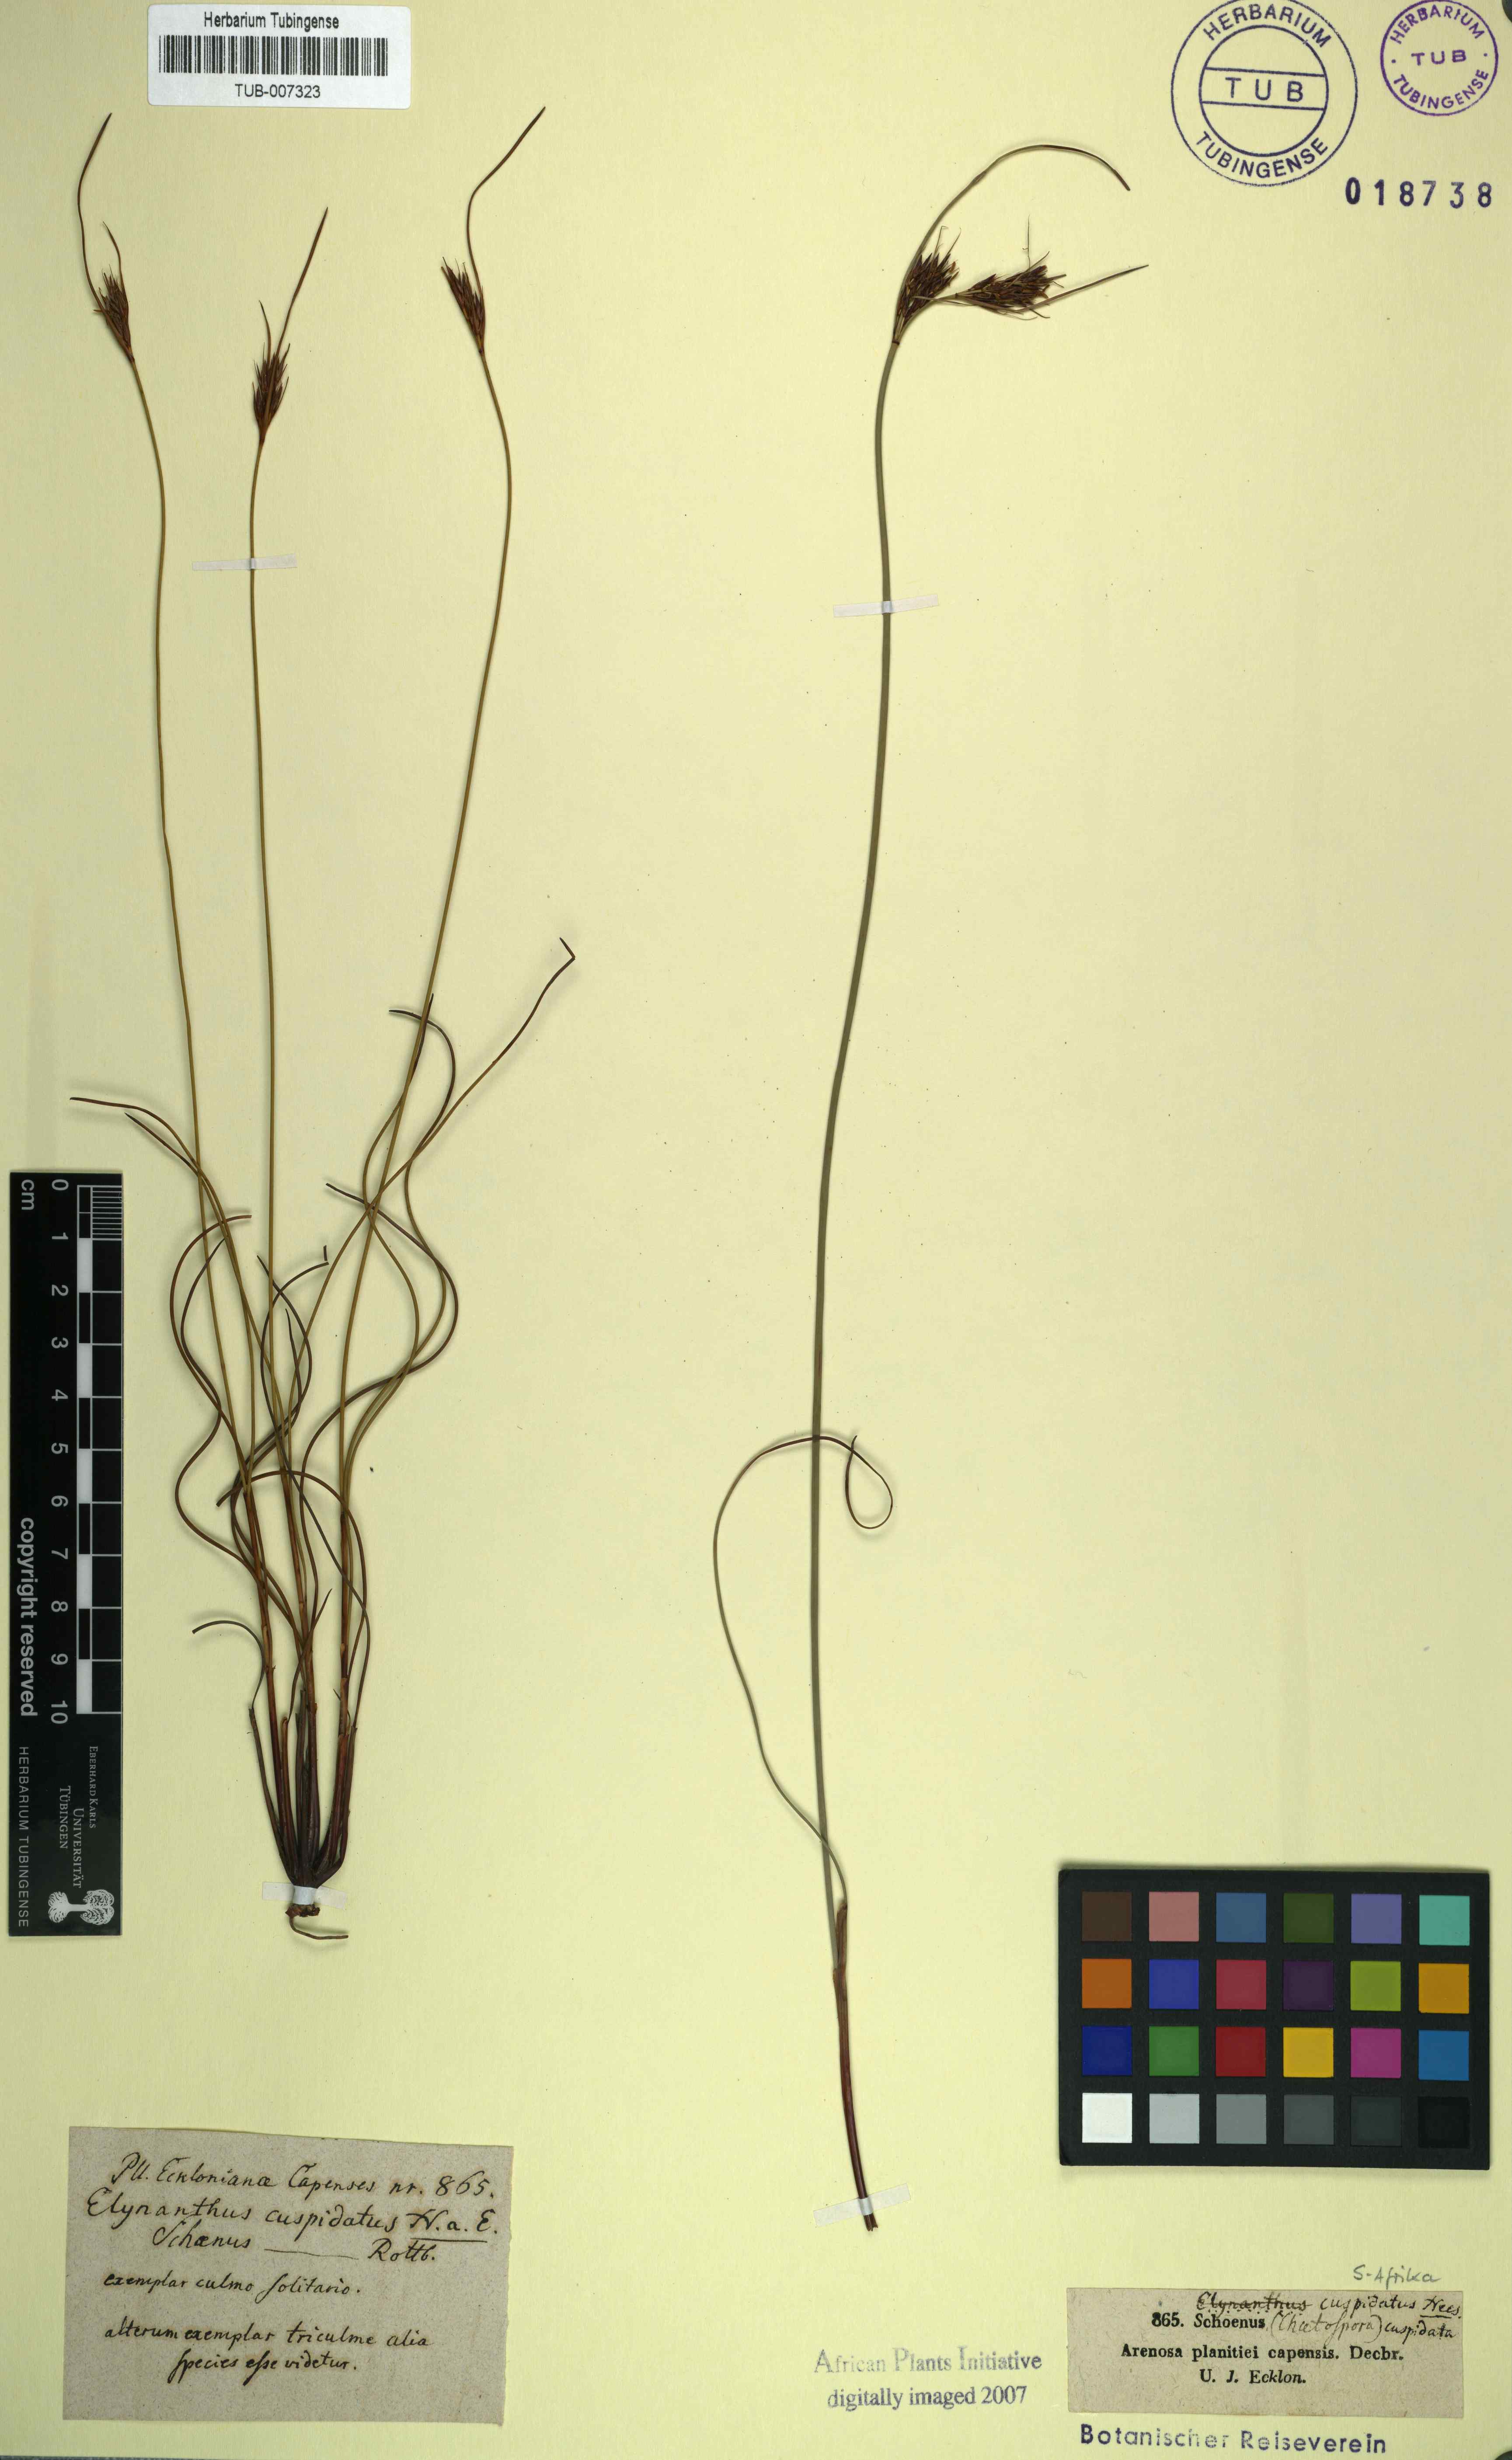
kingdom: Plantae
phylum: Tracheophyta
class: Liliopsida
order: Poales
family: Cyperaceae
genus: Schoenus
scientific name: Schoenus cuspidatus
